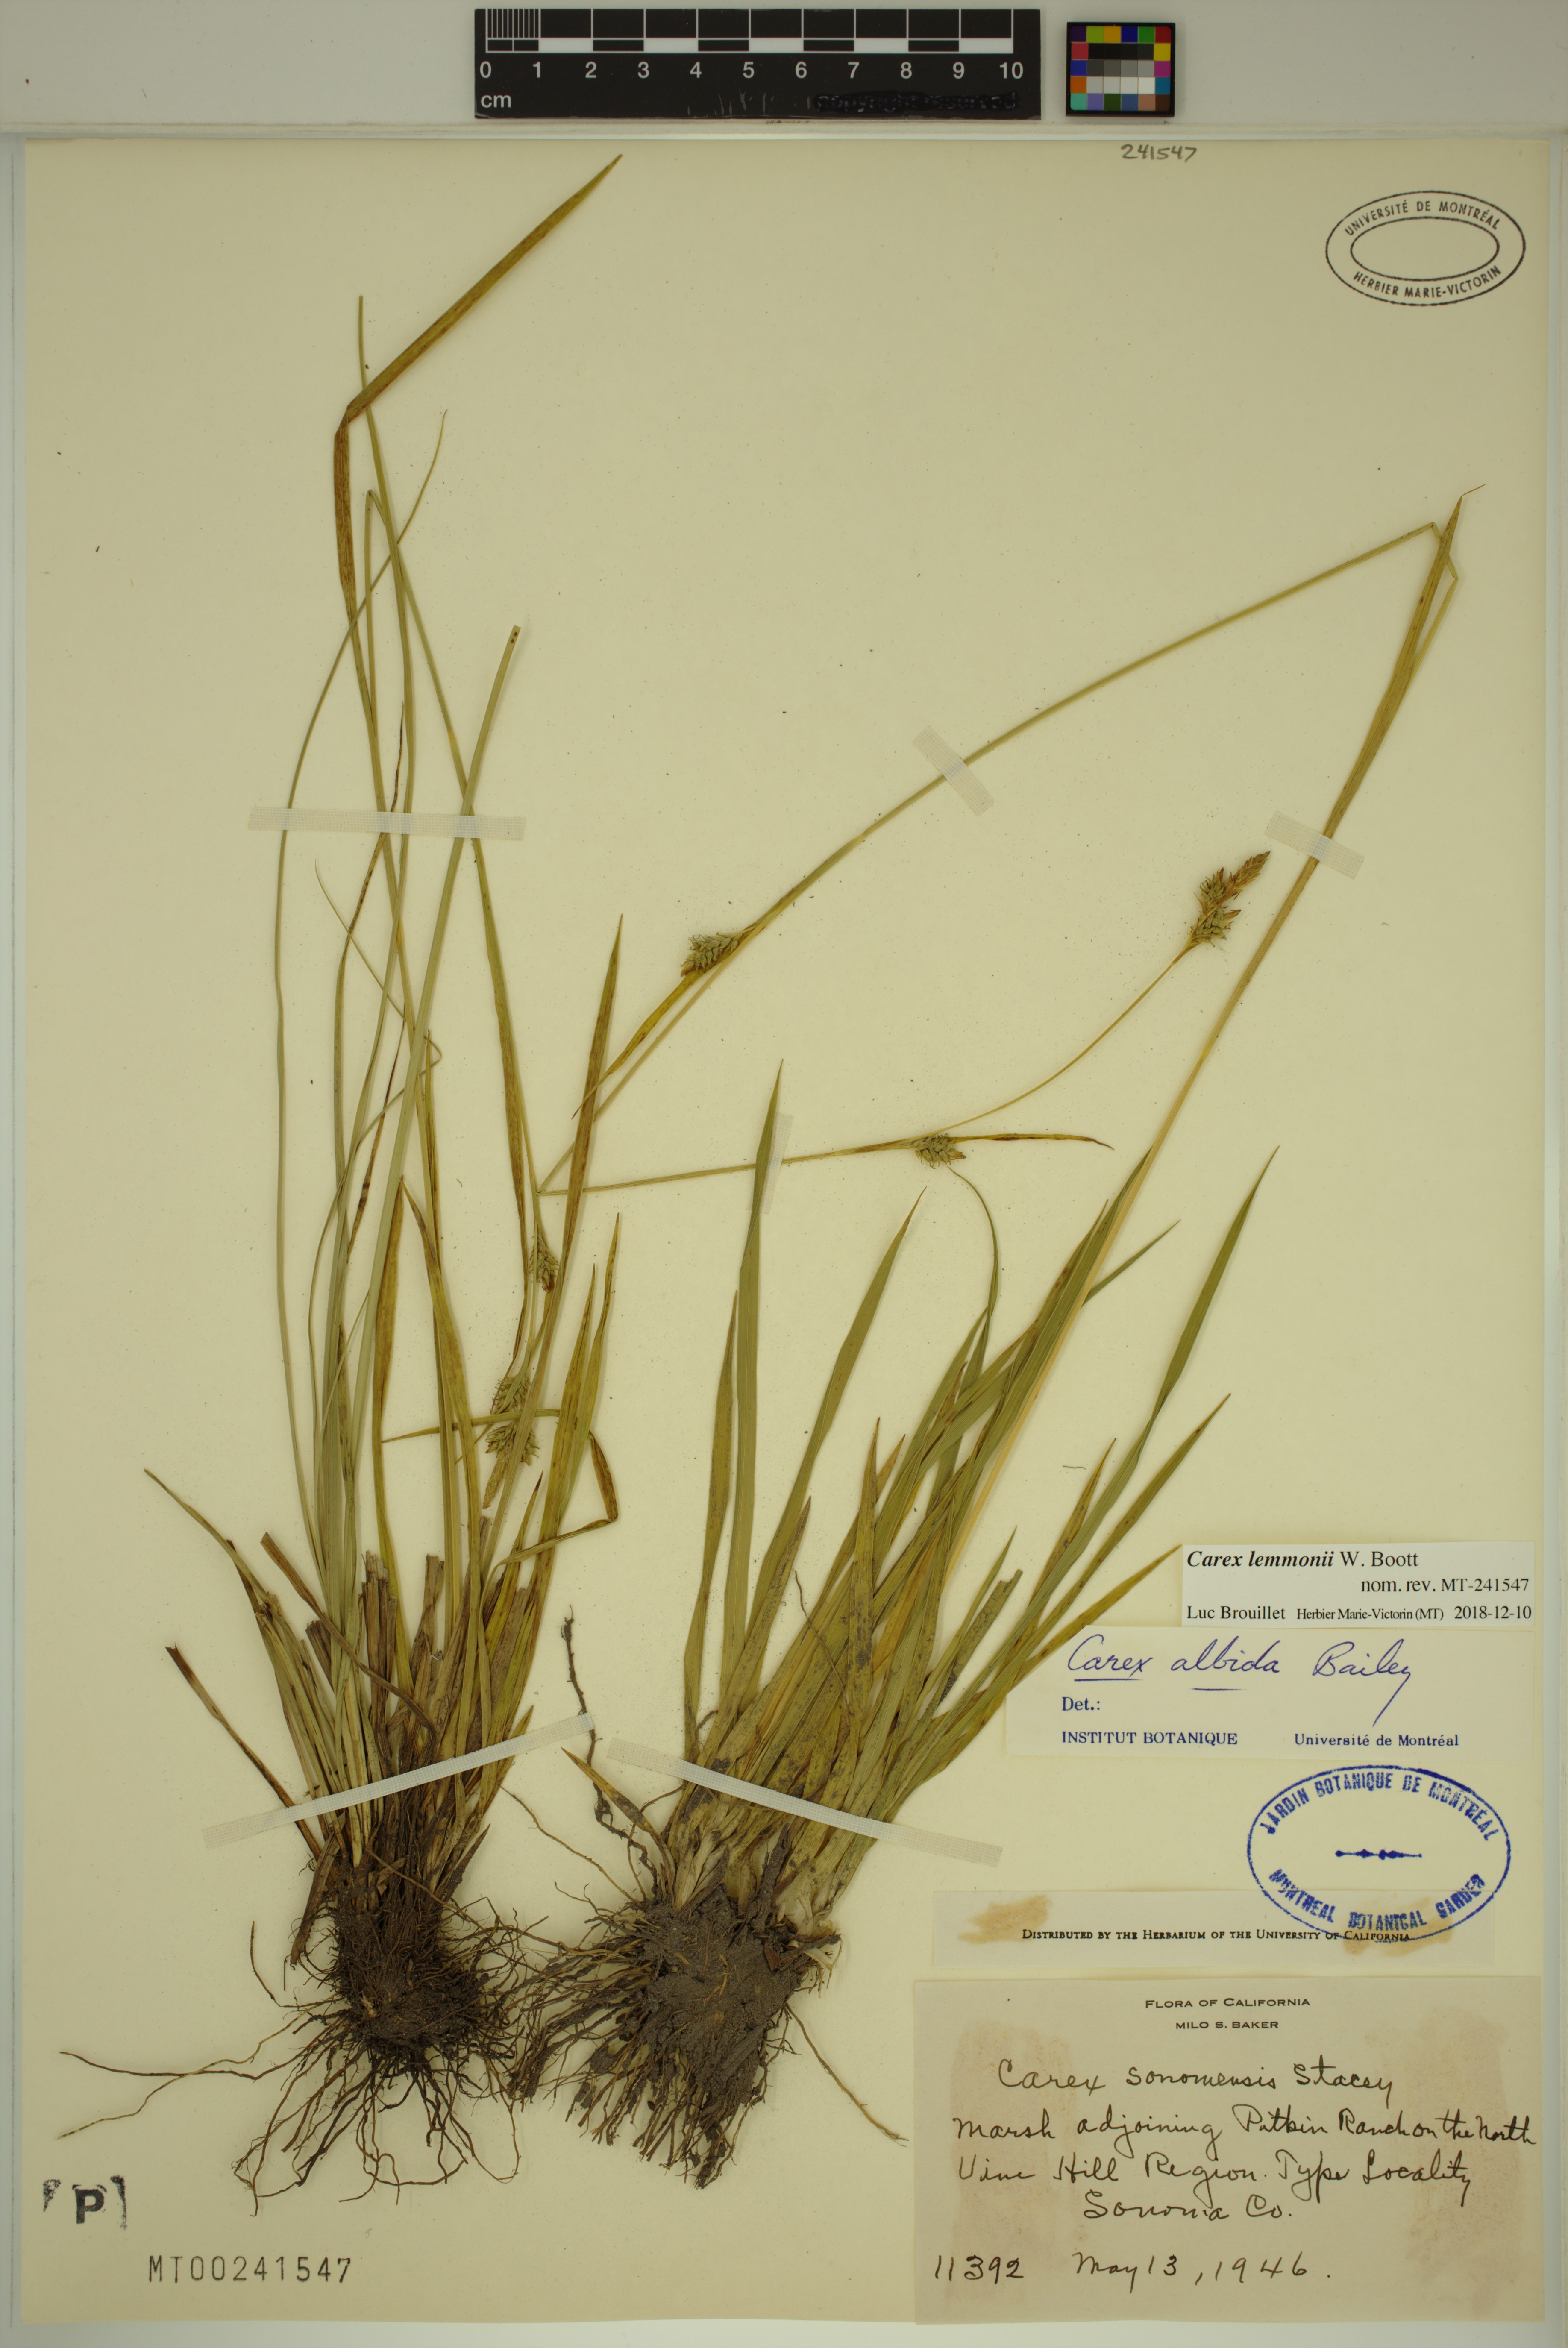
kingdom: Plantae
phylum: Tracheophyta
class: Liliopsida
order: Poales
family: Cyperaceae
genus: Carex
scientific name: Carex lemmonii
